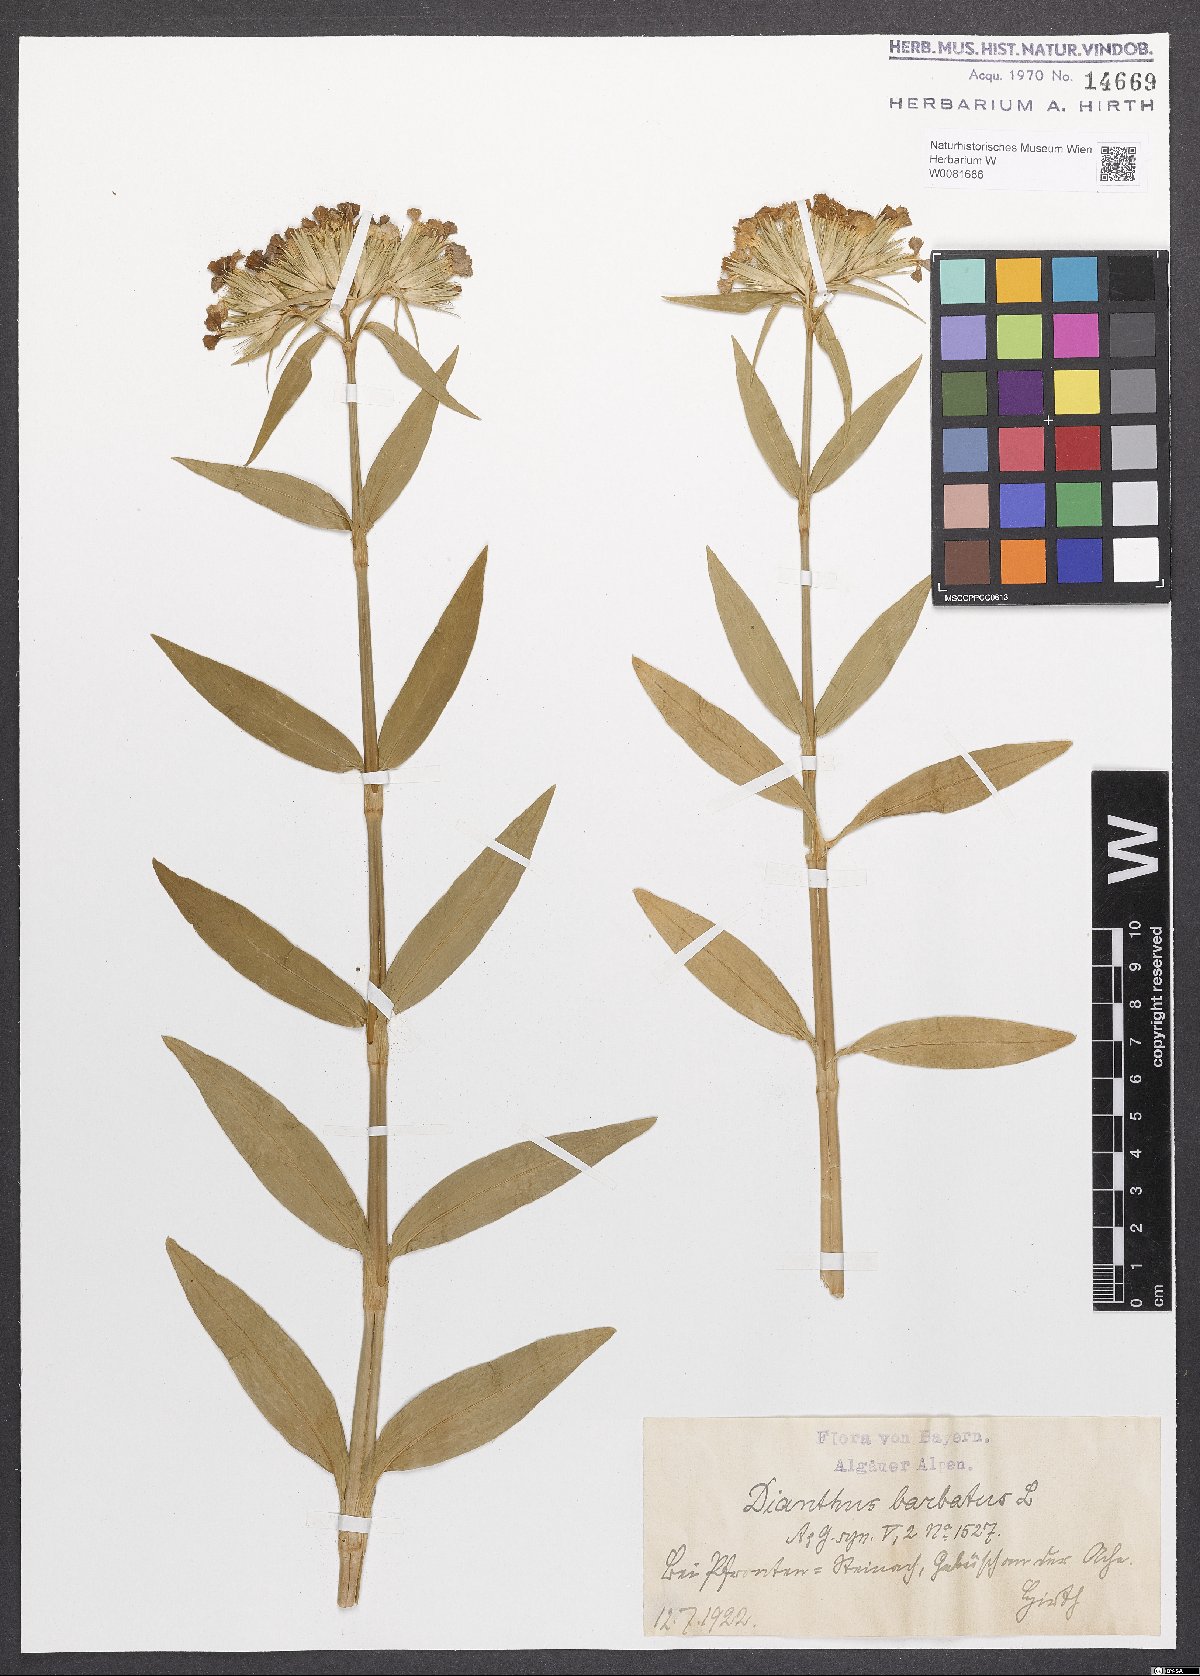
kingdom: Plantae
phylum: Tracheophyta
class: Magnoliopsida
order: Caryophyllales
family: Caryophyllaceae
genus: Dianthus
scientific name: Dianthus barbatus
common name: Sweet-william
